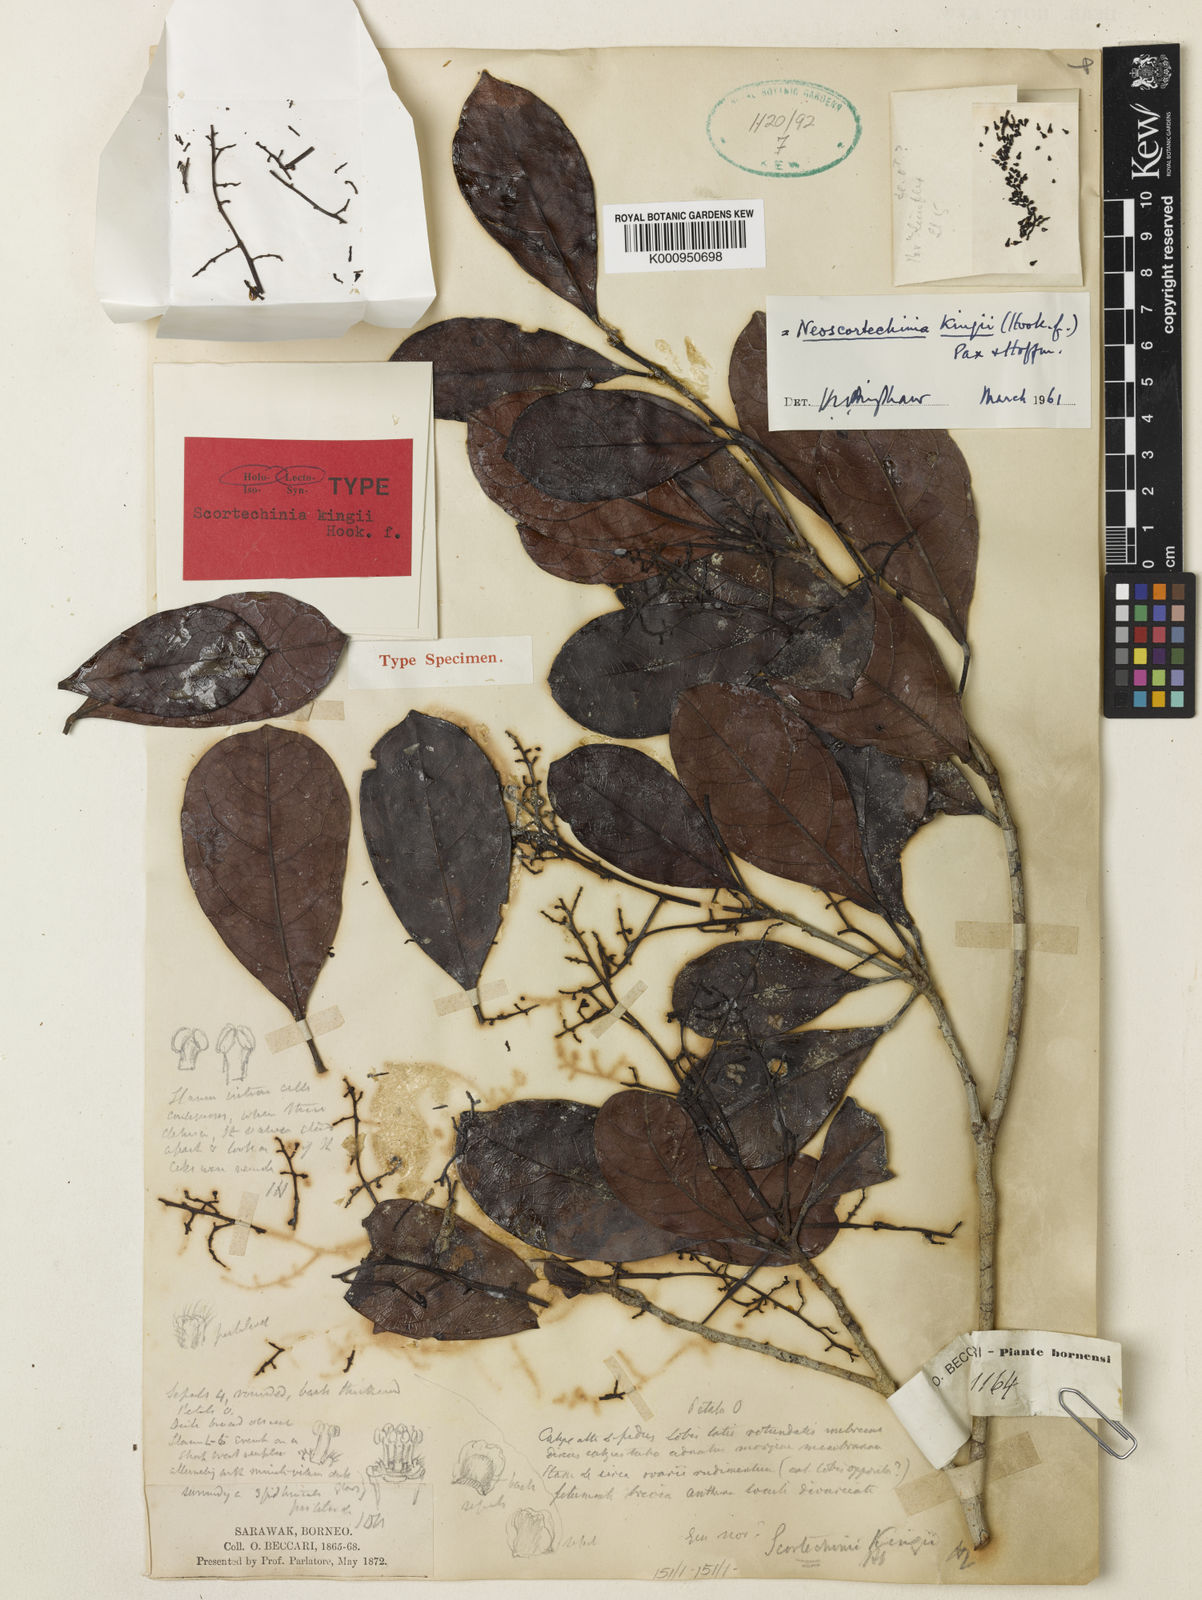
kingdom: Plantae
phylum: Tracheophyta
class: Magnoliopsida
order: Malpighiales
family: Euphorbiaceae
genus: Neoscortechinia
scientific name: Neoscortechinia kingii
